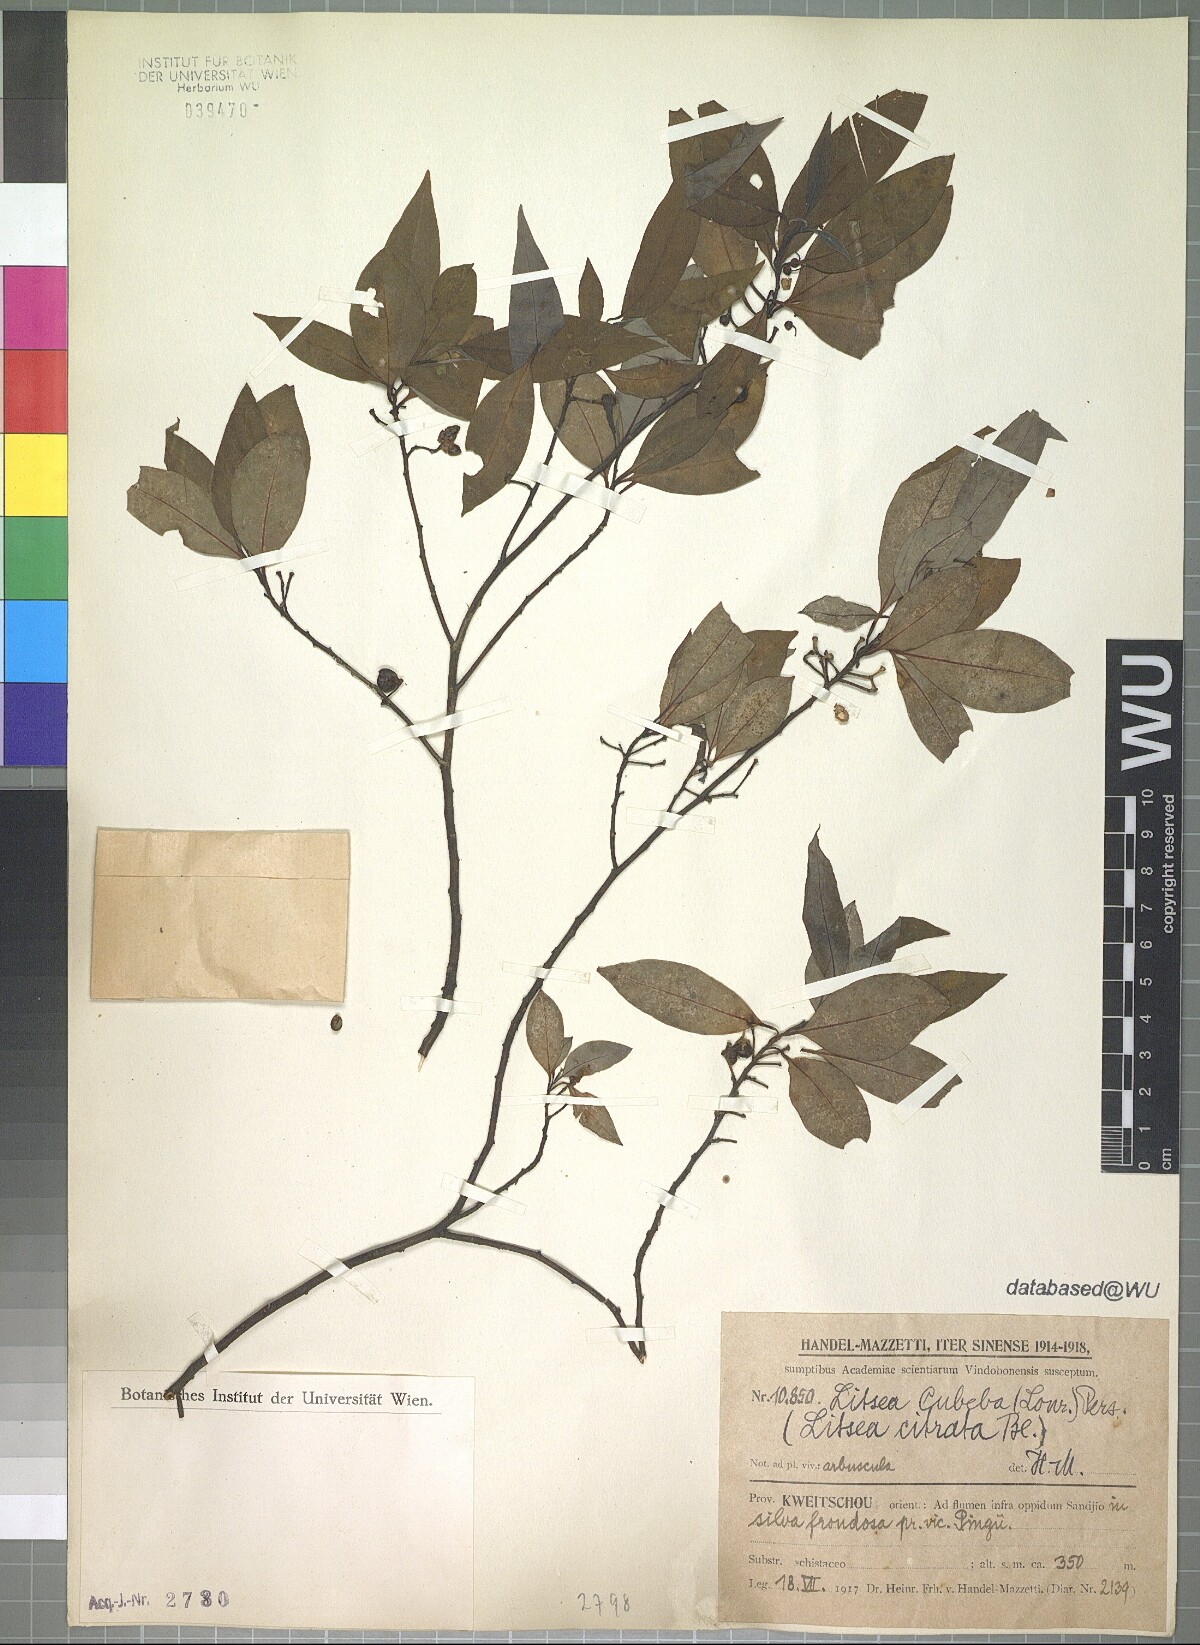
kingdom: Plantae
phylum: Tracheophyta
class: Magnoliopsida
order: Laurales
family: Lauraceae
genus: Litsea
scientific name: Litsea cubeba
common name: Mountain-pepper
